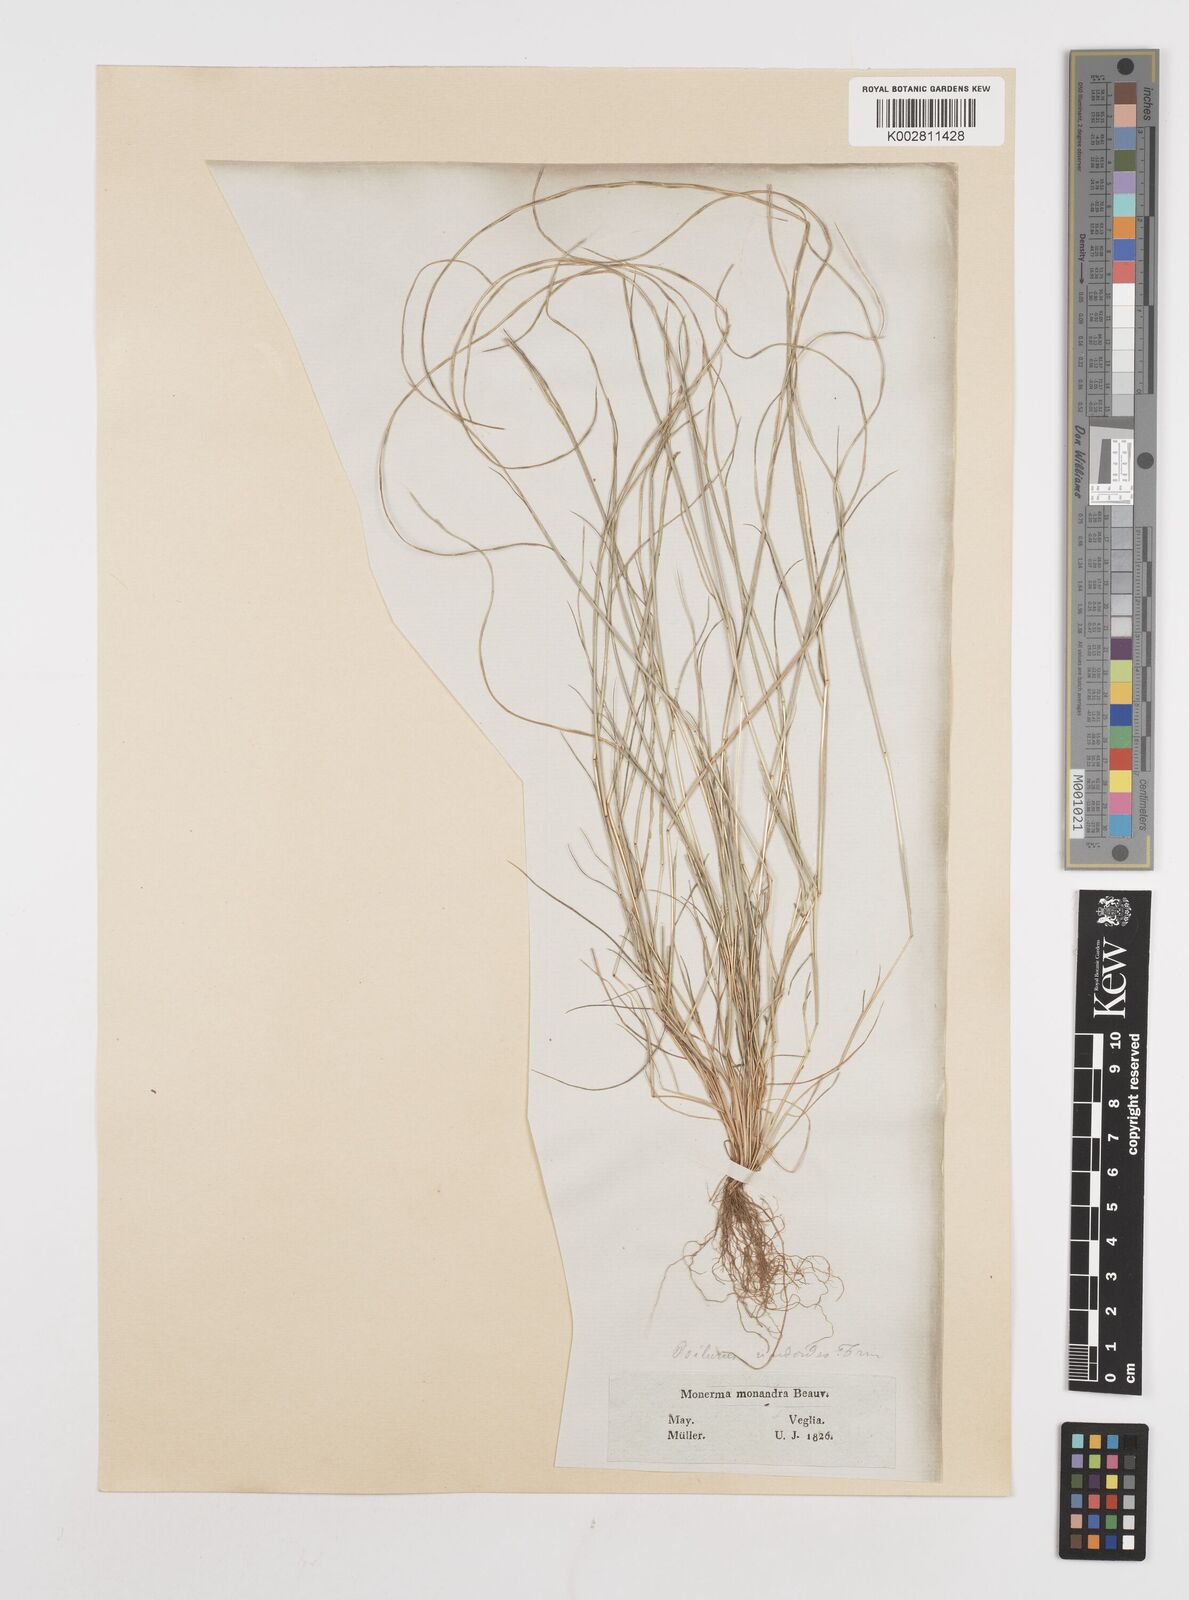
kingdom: Plantae
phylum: Tracheophyta
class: Liliopsida
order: Poales
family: Poaceae
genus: Festuca
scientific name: Festuca incurva
